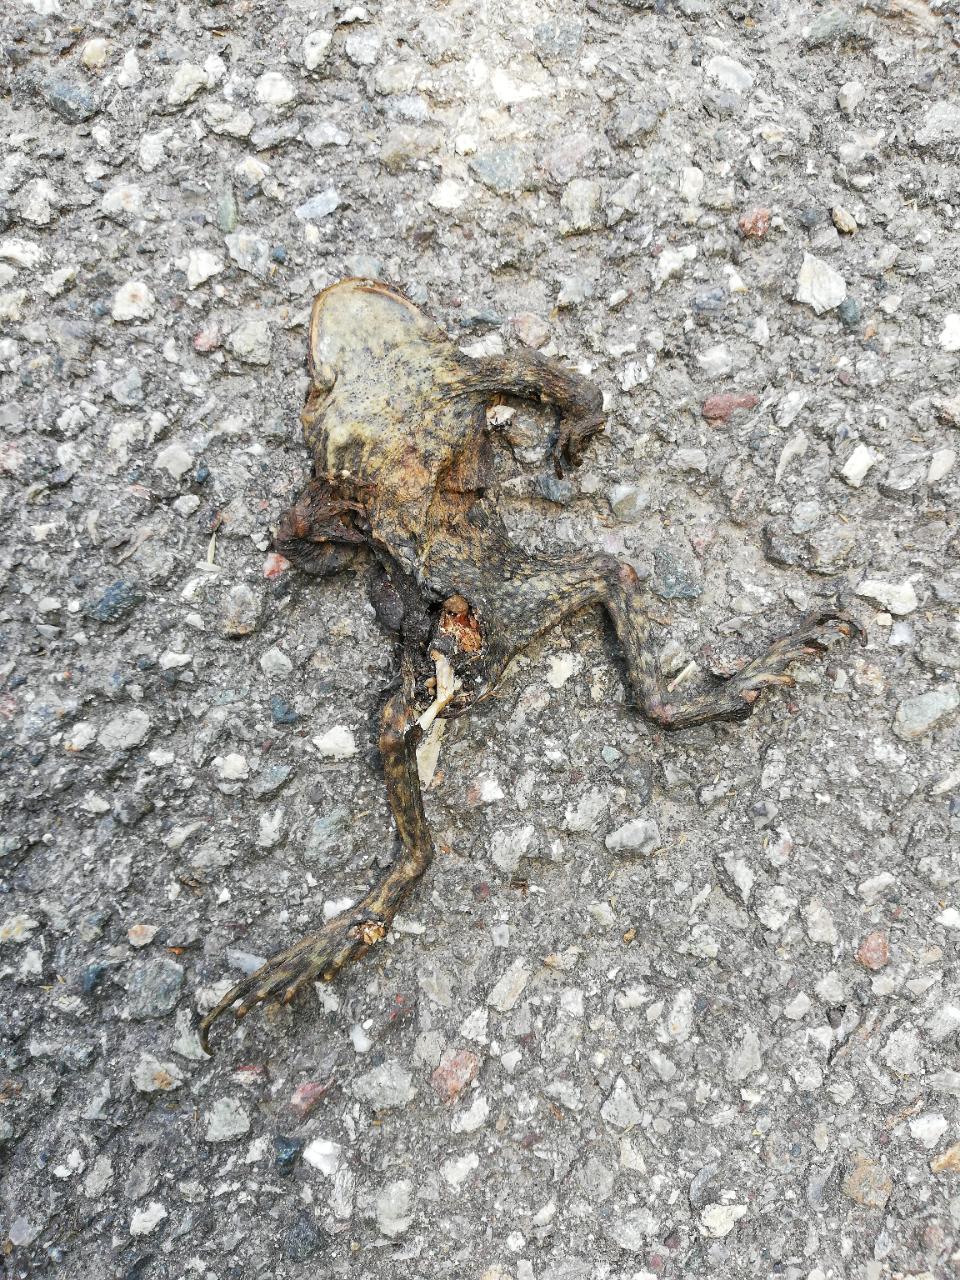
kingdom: Animalia
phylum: Chordata
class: Amphibia
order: Anura
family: Bufonidae
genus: Bufo
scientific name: Bufo bufo
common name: Common toad
